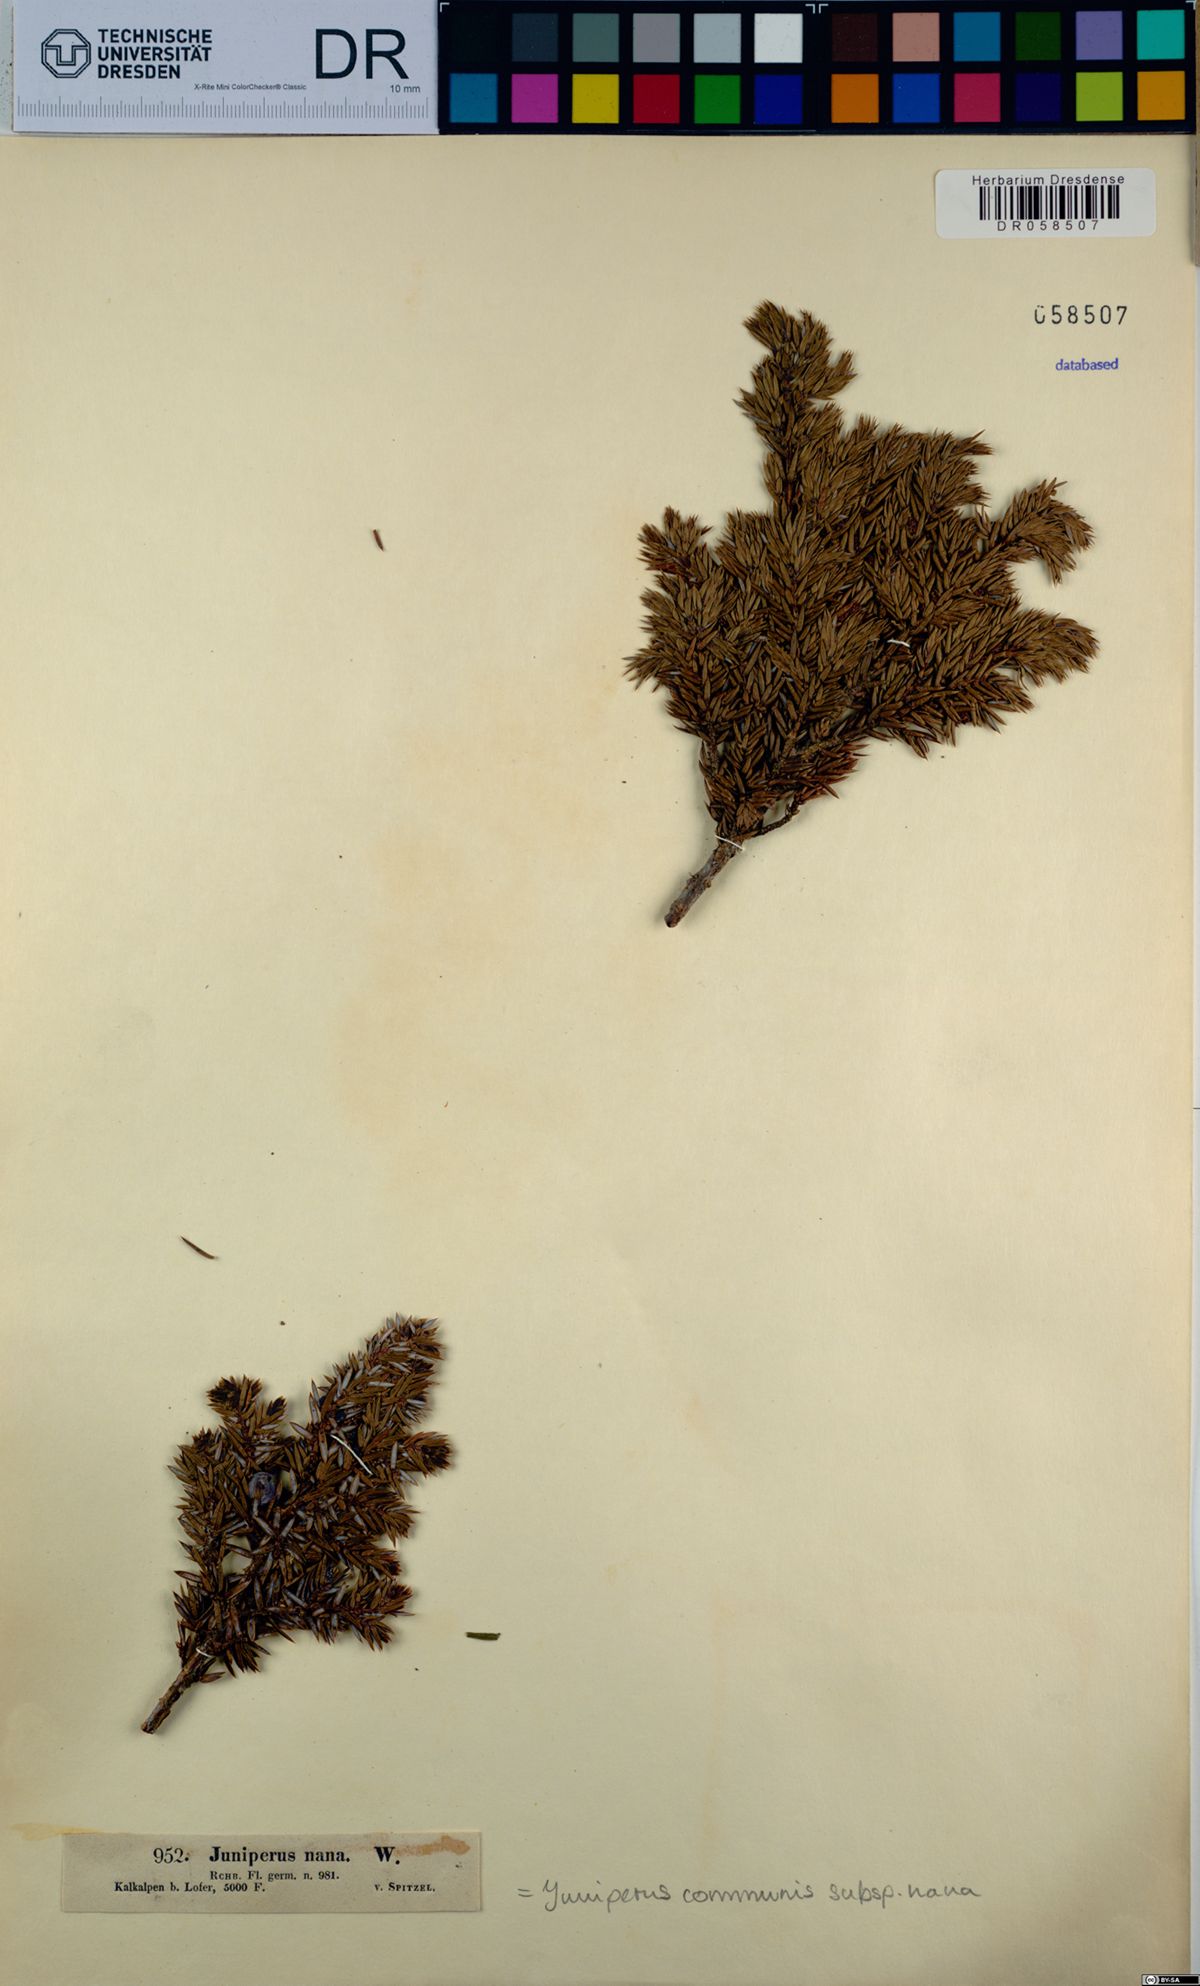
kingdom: Plantae
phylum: Tracheophyta
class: Pinopsida
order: Pinales
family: Cupressaceae
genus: Juniperus
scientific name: Juniperus communis
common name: Common juniper
